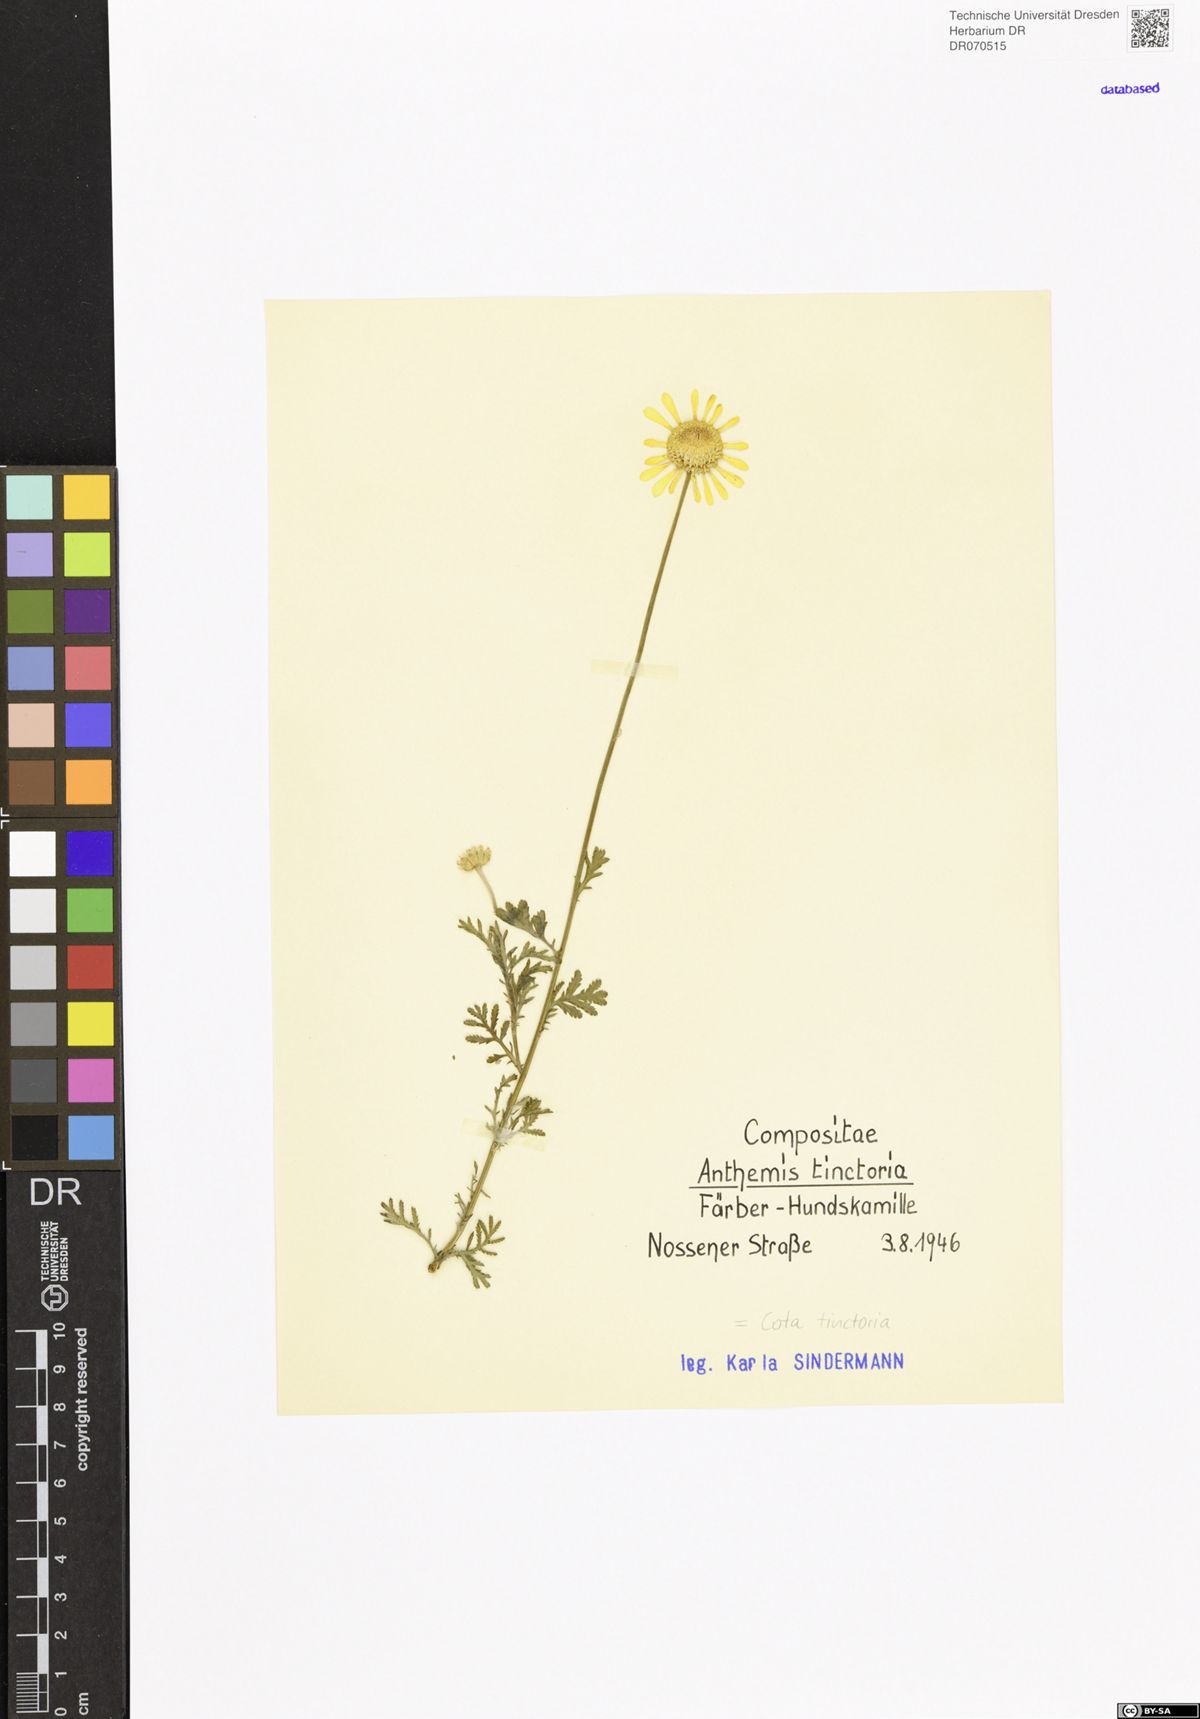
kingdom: Plantae
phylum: Tracheophyta
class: Magnoliopsida
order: Asterales
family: Asteraceae
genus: Cota
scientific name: Cota tinctoria
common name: Golden chamomile
